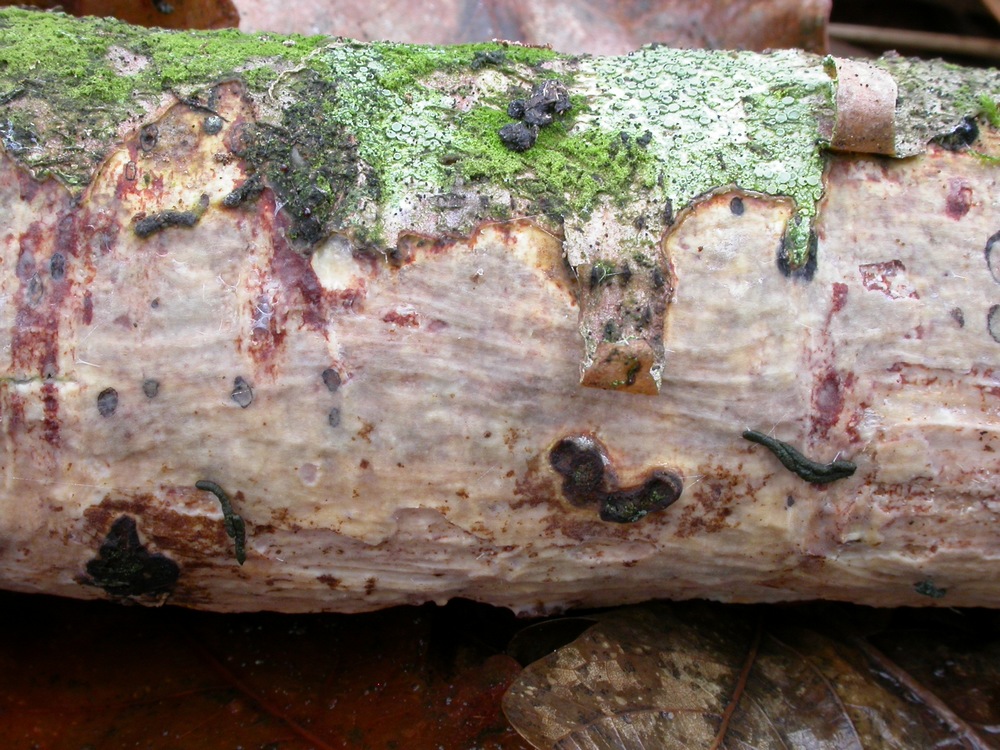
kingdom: Fungi
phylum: Basidiomycota
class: Agaricomycetes
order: Corticiales
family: Vuilleminiaceae
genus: Vuilleminia
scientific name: Vuilleminia comedens
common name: almindelig barksprænger
